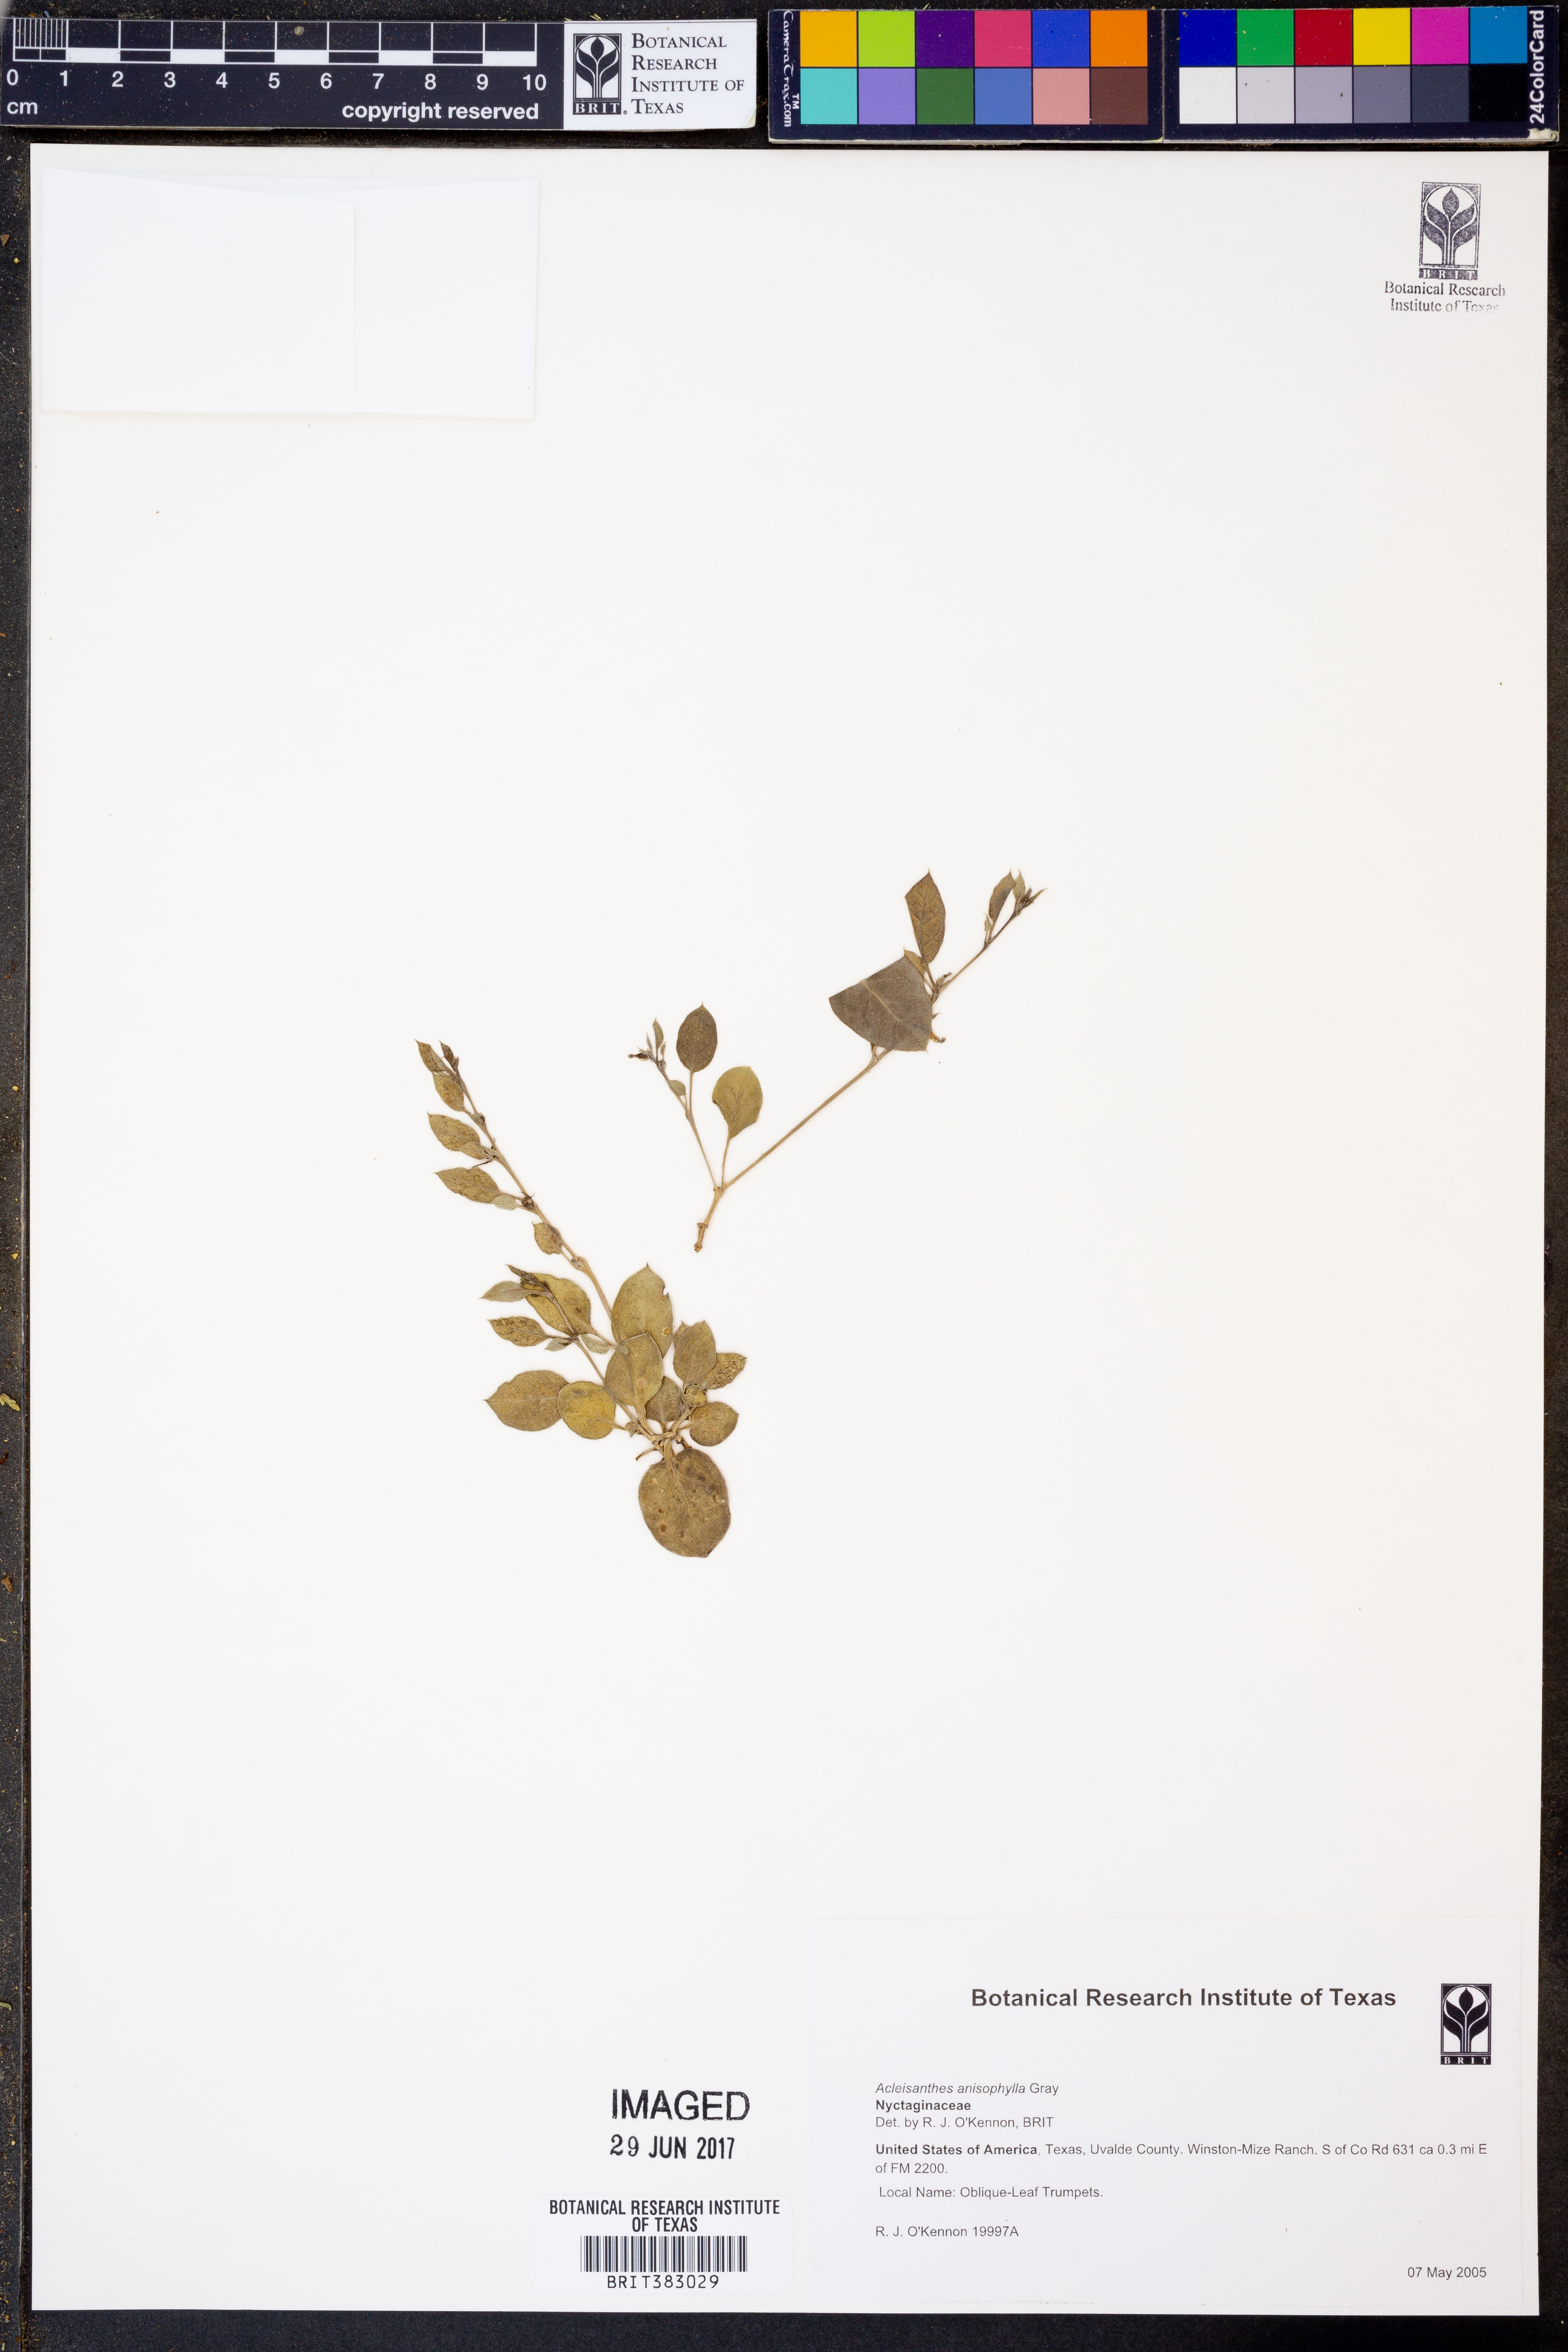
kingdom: Plantae
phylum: Tracheophyta
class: Magnoliopsida
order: Caryophyllales
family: Nyctaginaceae
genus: Acleisanthes
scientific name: Acleisanthes anisophylla
